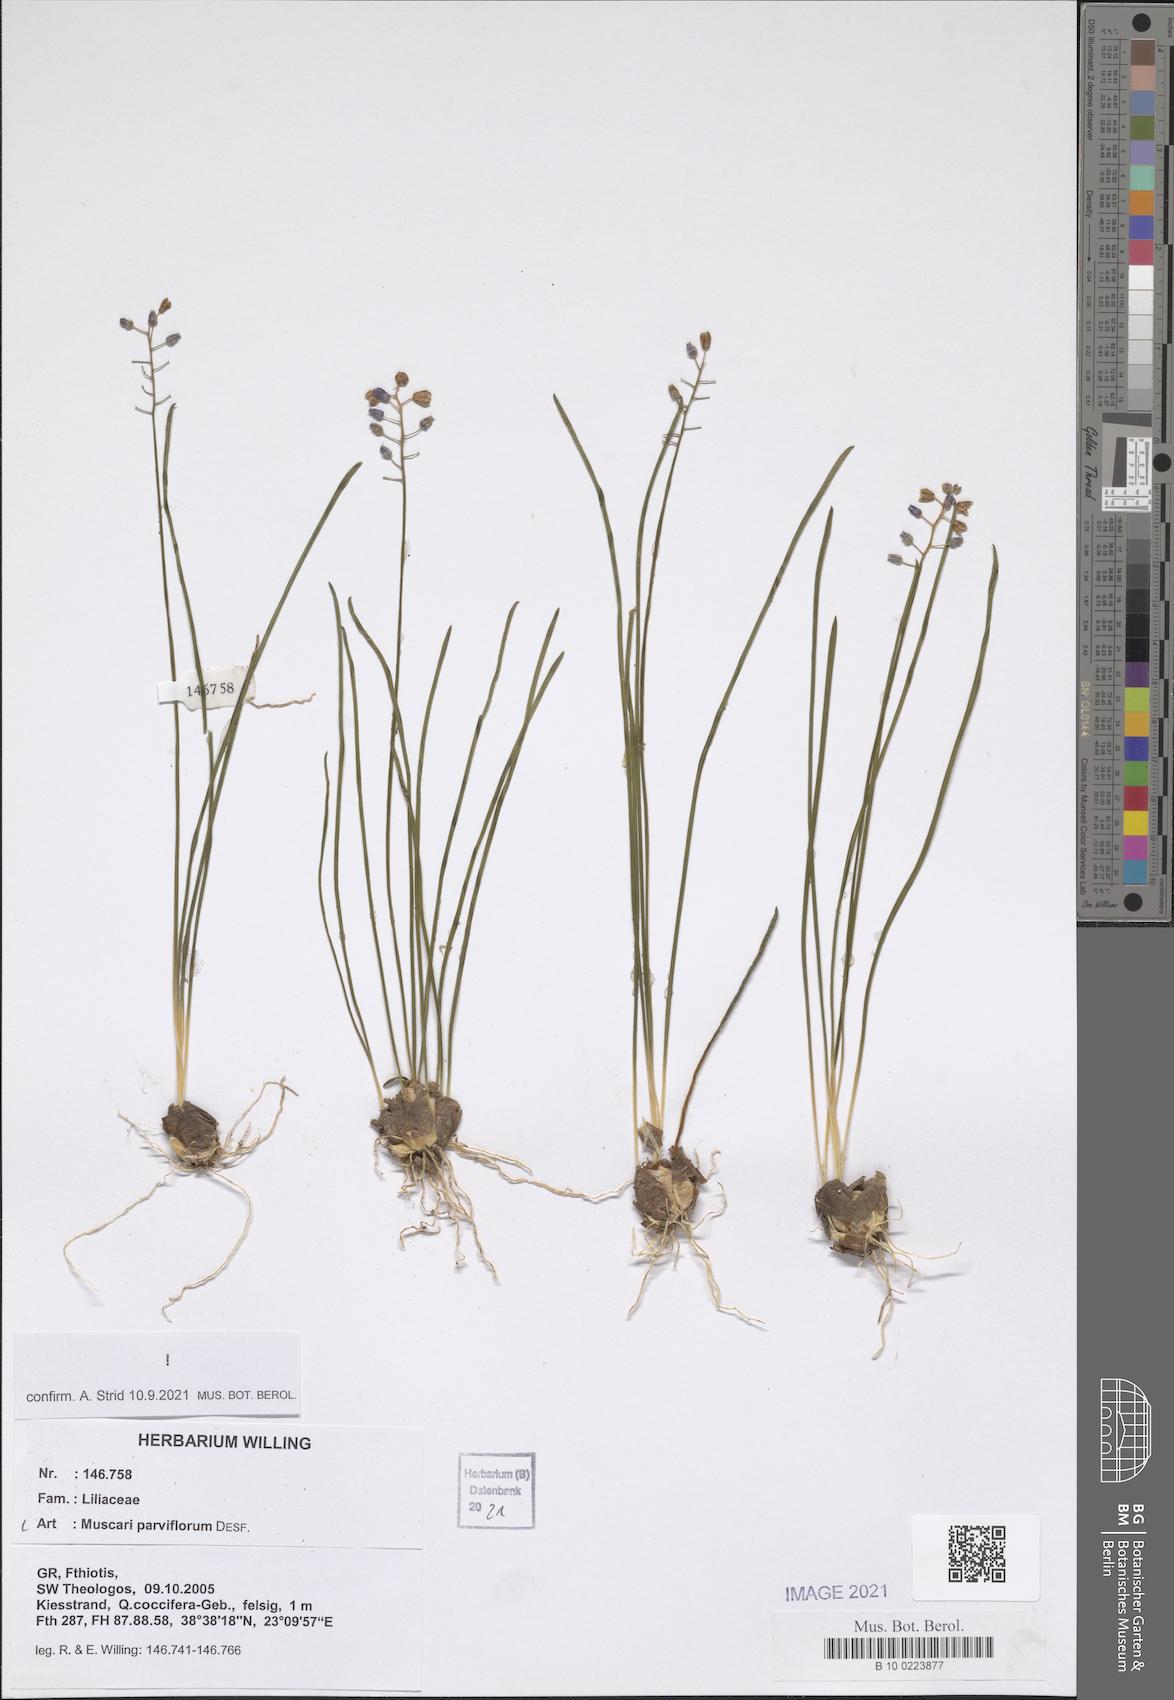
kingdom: Plantae
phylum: Tracheophyta
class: Liliopsida
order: Asparagales
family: Asparagaceae
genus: Muscari
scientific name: Muscari parviflorum
